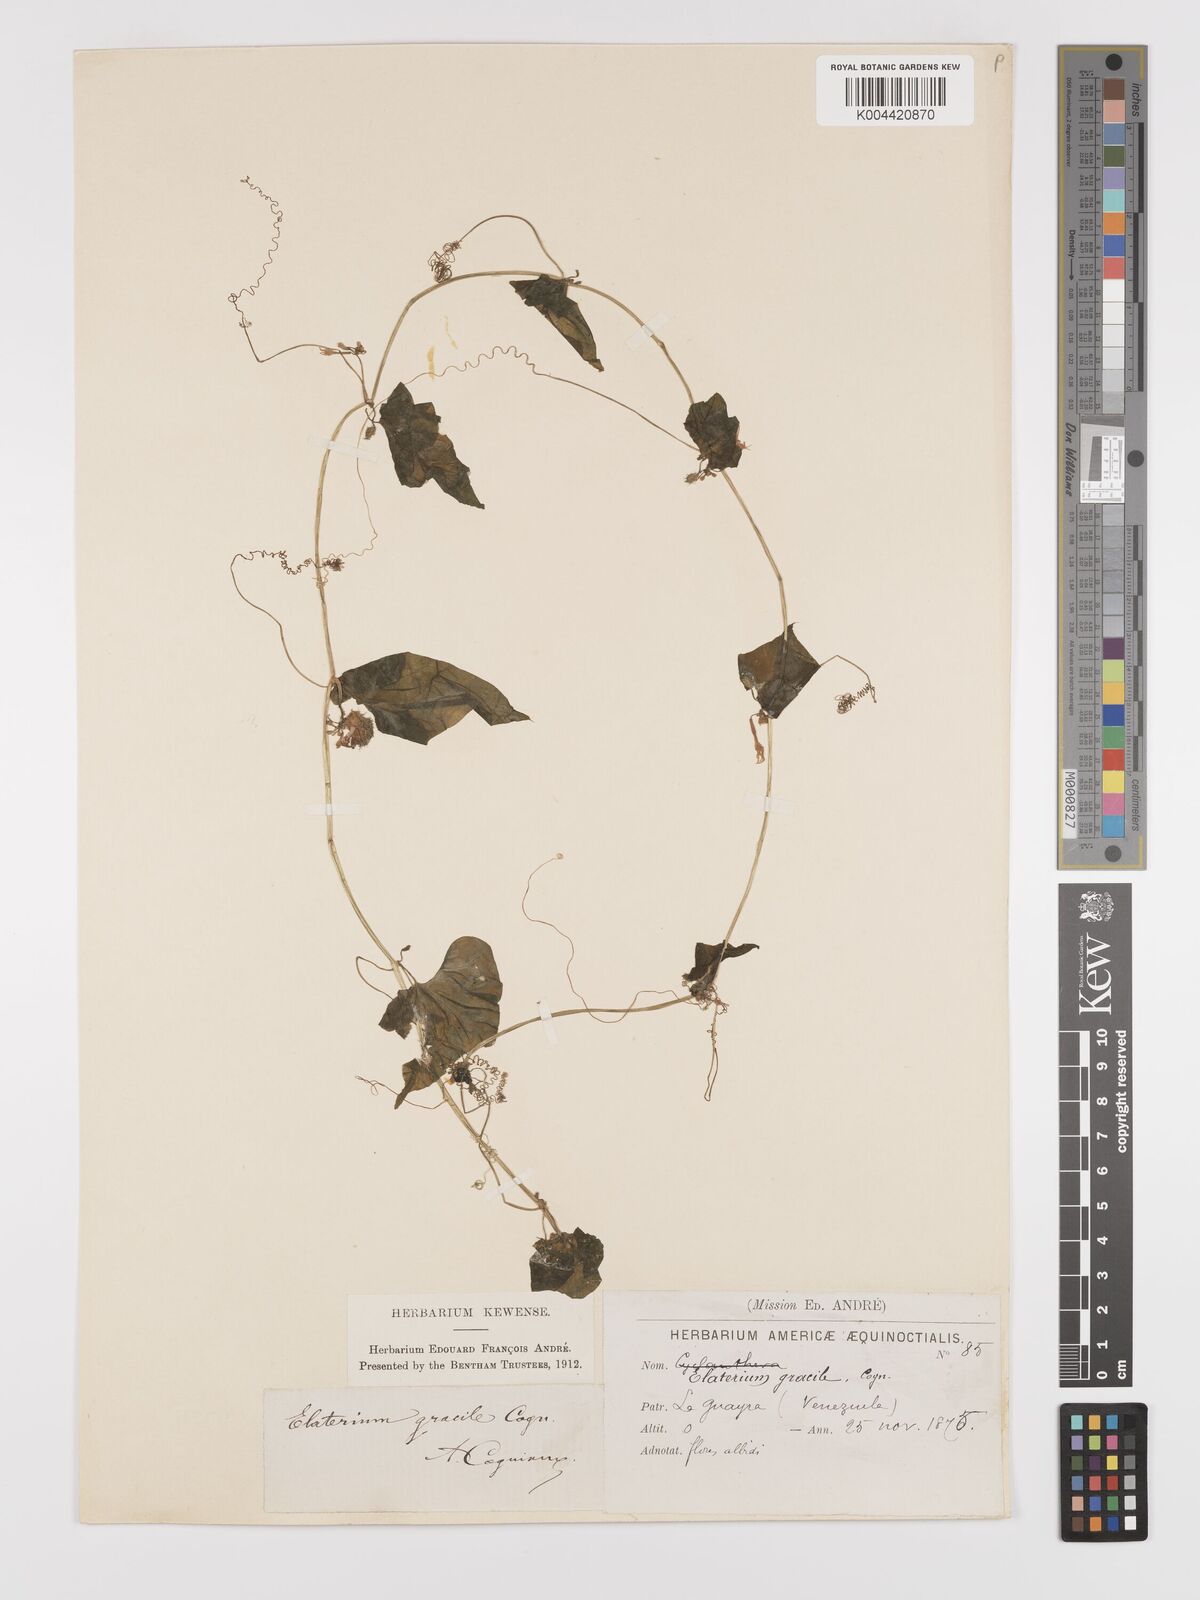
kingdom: Plantae
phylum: Tracheophyta
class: Magnoliopsida
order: Cucurbitales
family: Cucurbitaceae
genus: Cyclanthera
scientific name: Cyclanthera carthagenensis
